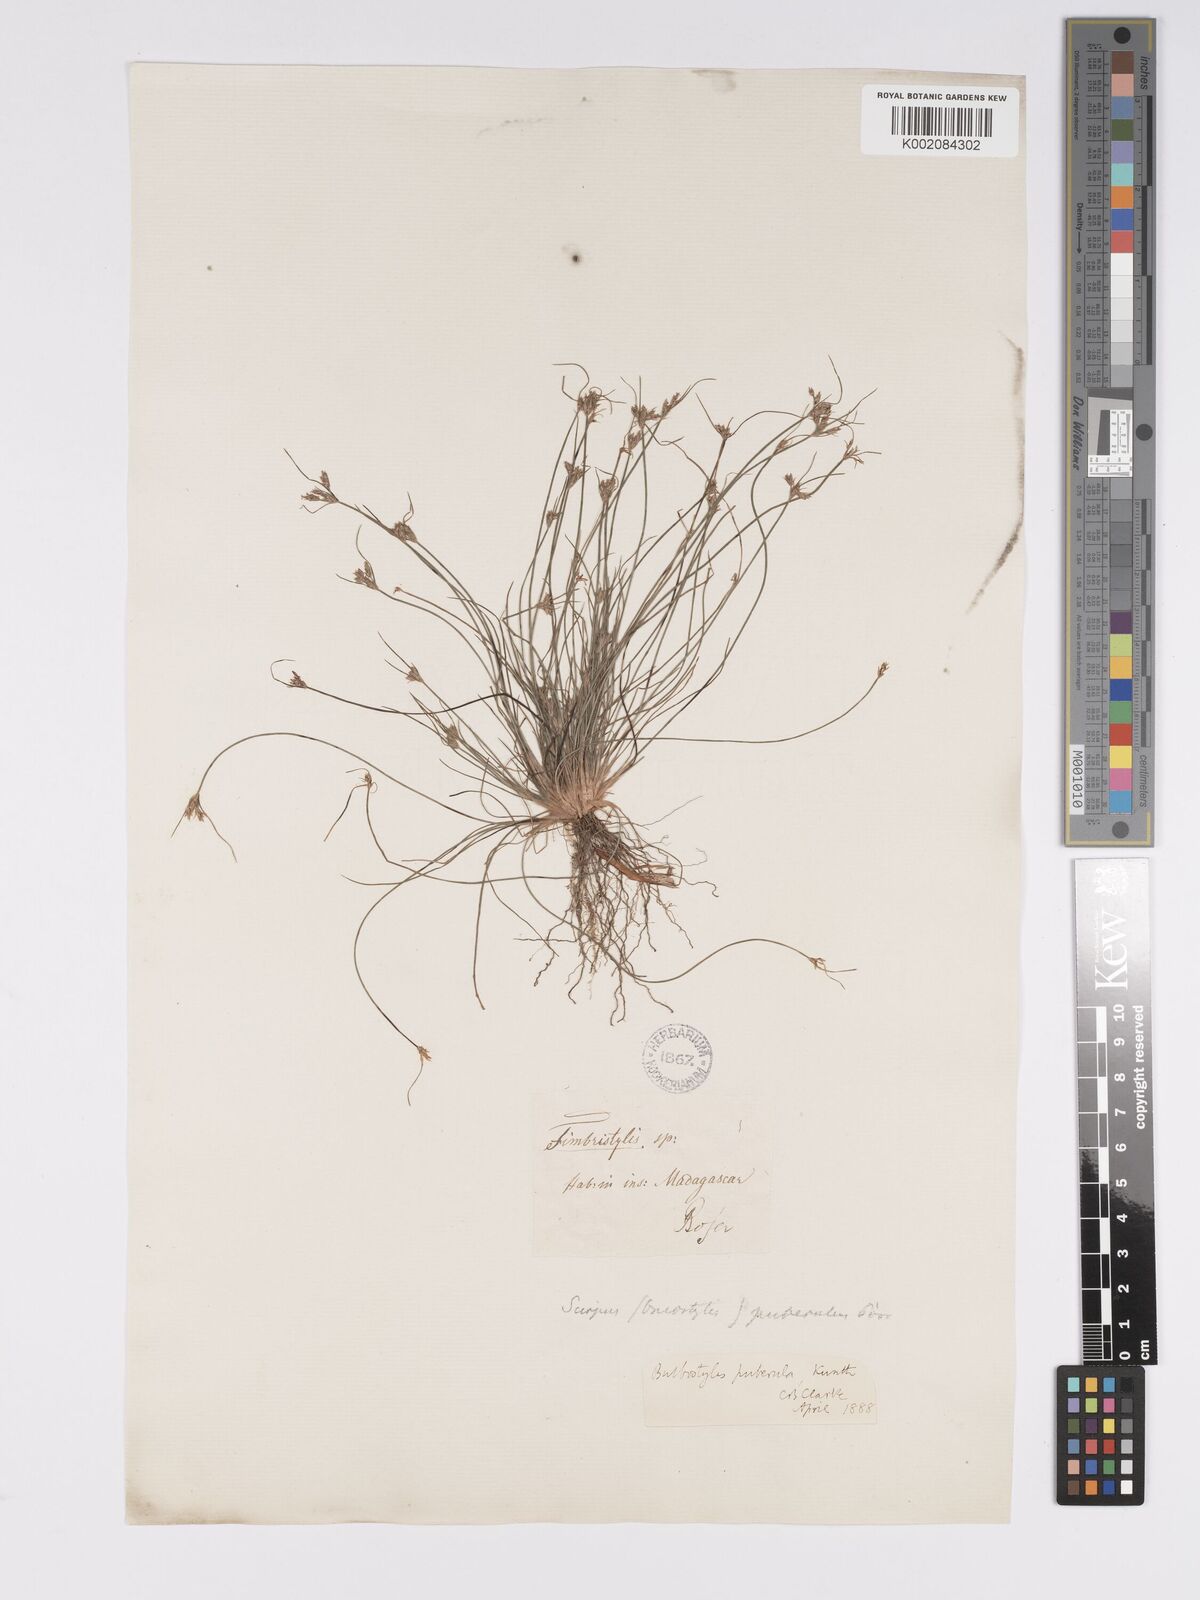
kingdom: Plantae
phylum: Tracheophyta
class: Liliopsida
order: Poales
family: Cyperaceae
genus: Bulbostylis
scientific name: Bulbostylis thouarsii
